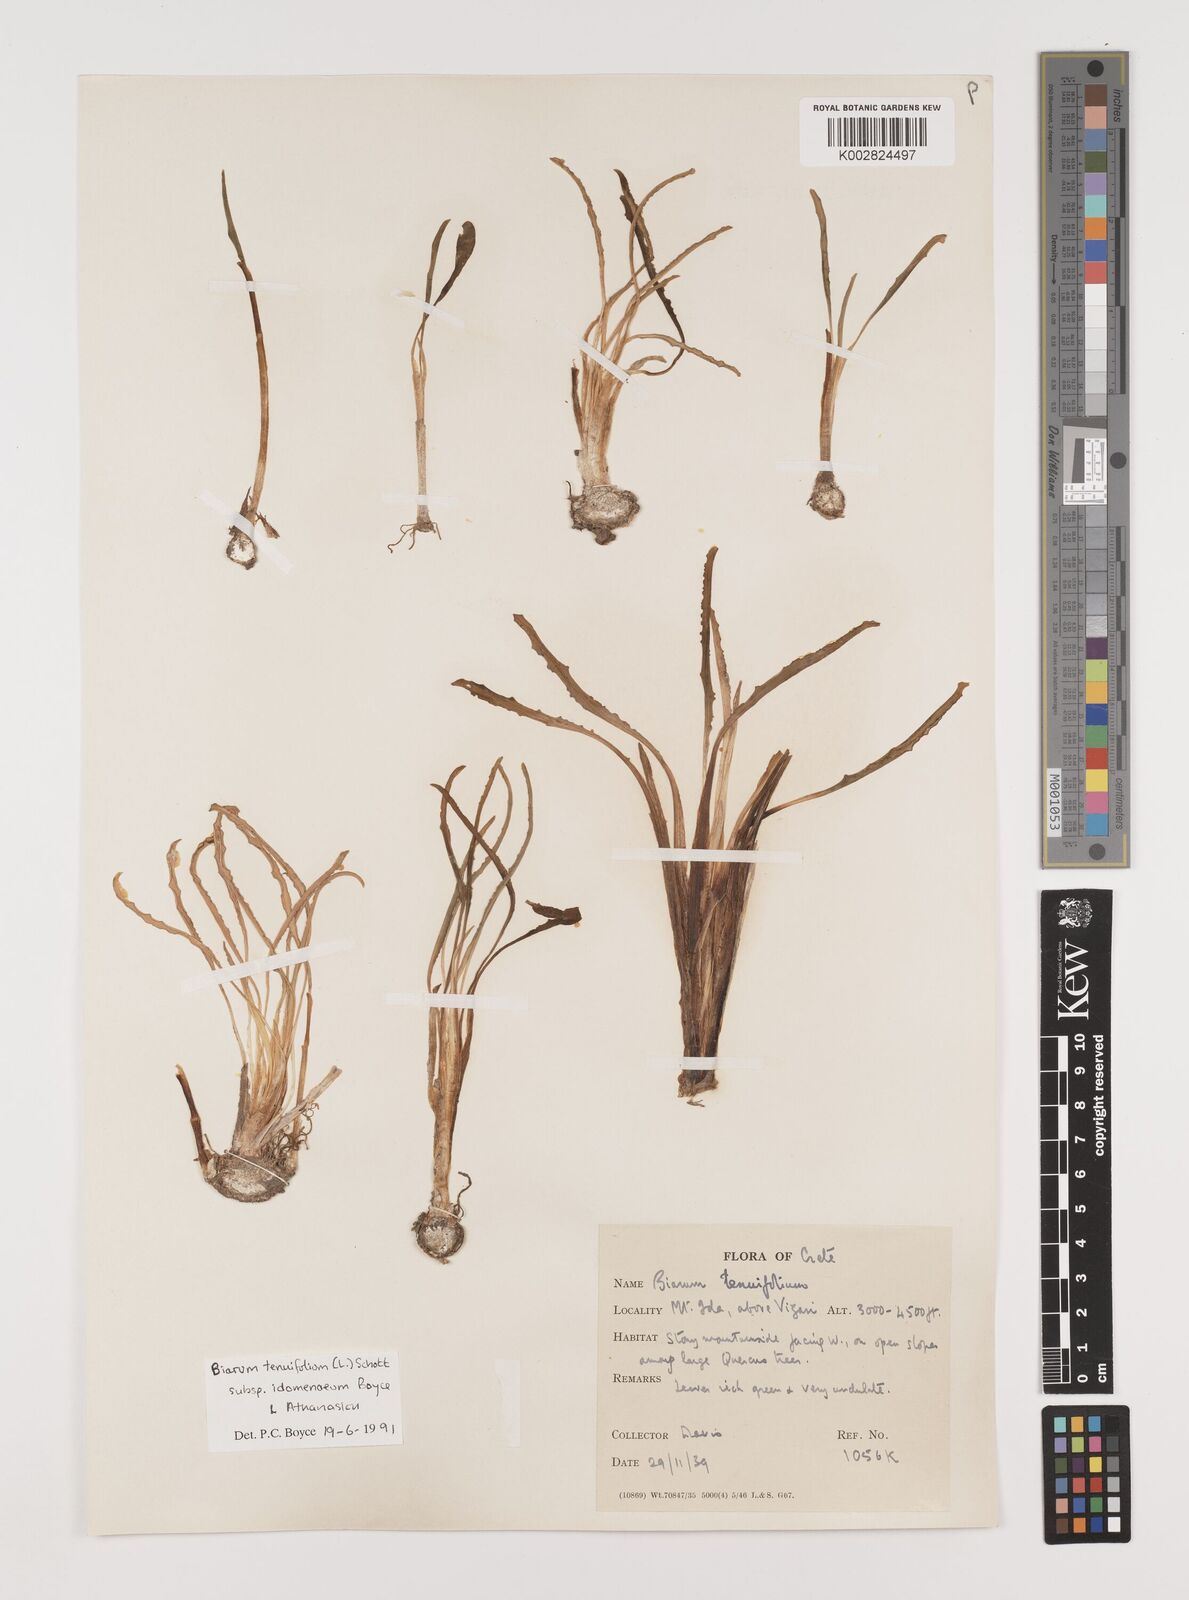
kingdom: Plantae
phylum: Tracheophyta
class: Liliopsida
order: Alismatales
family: Araceae
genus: Biarum
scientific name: Biarum tenuifolium
